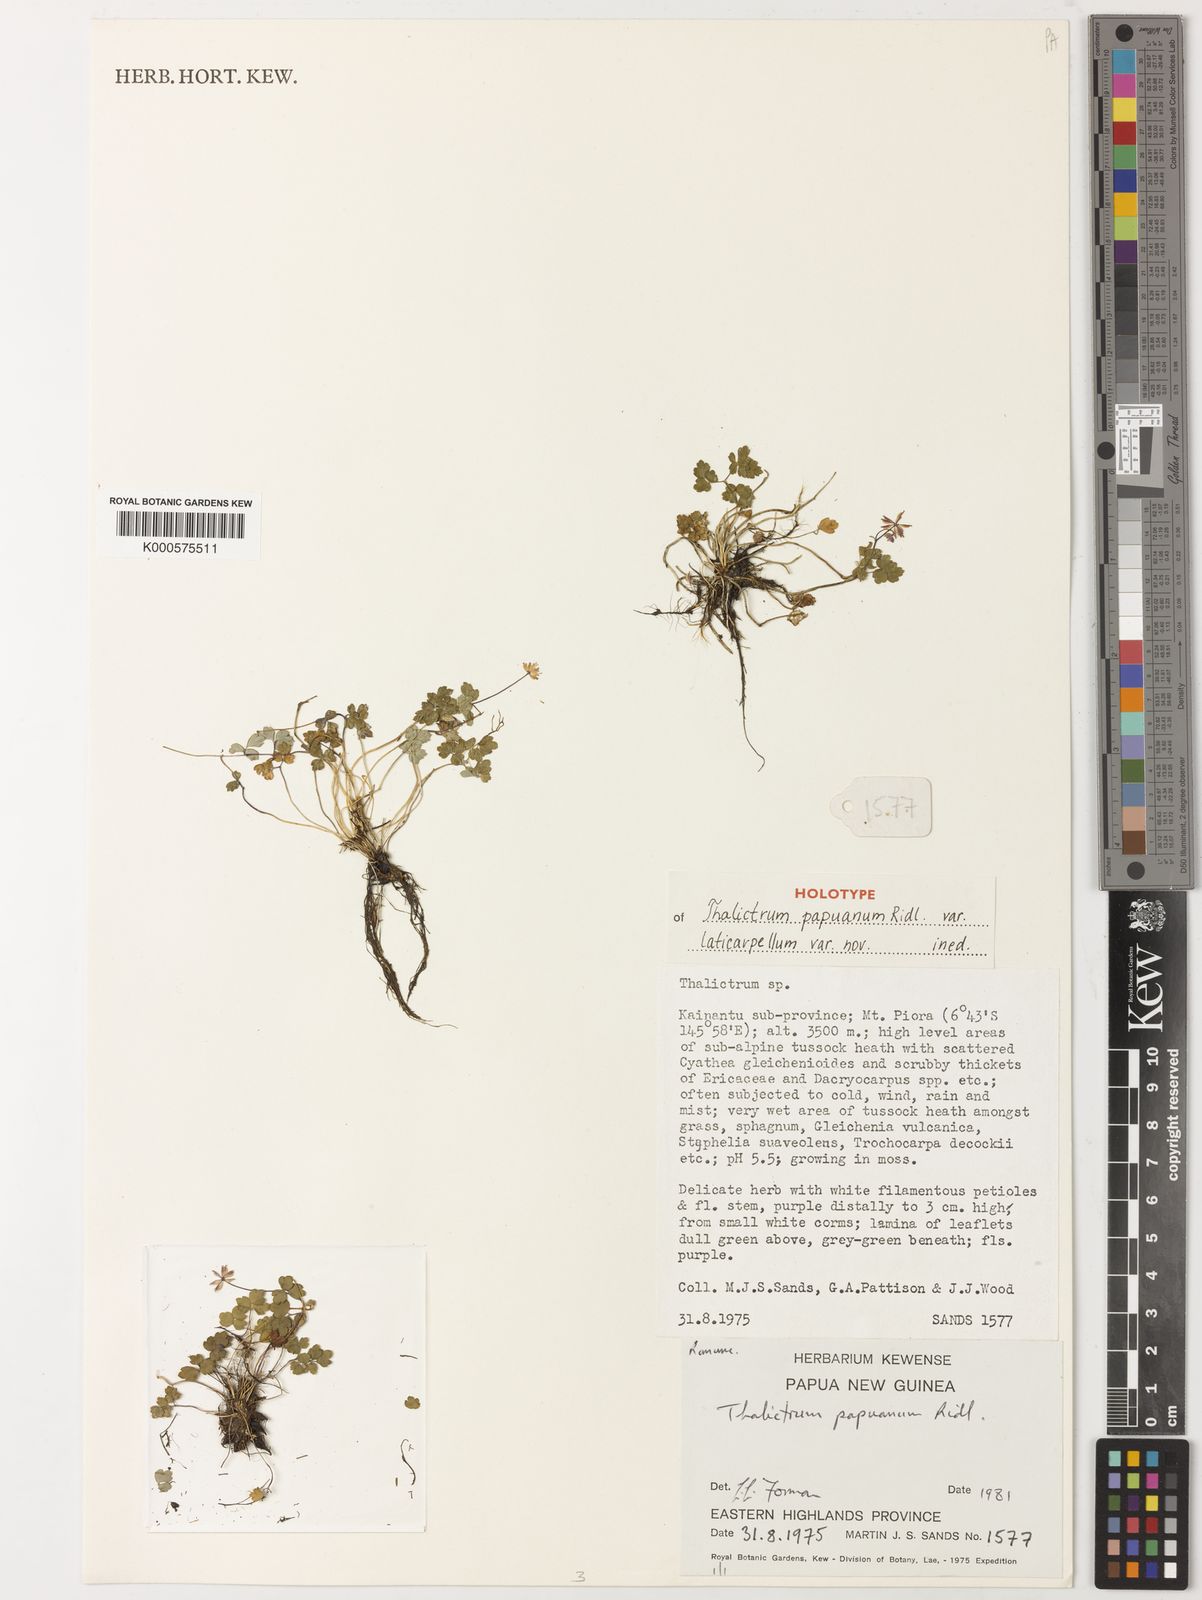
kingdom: Plantae
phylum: Tracheophyta
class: Magnoliopsida
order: Ranunculales
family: Ranunculaceae
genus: Thalictrum
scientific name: Thalictrum papuanum
